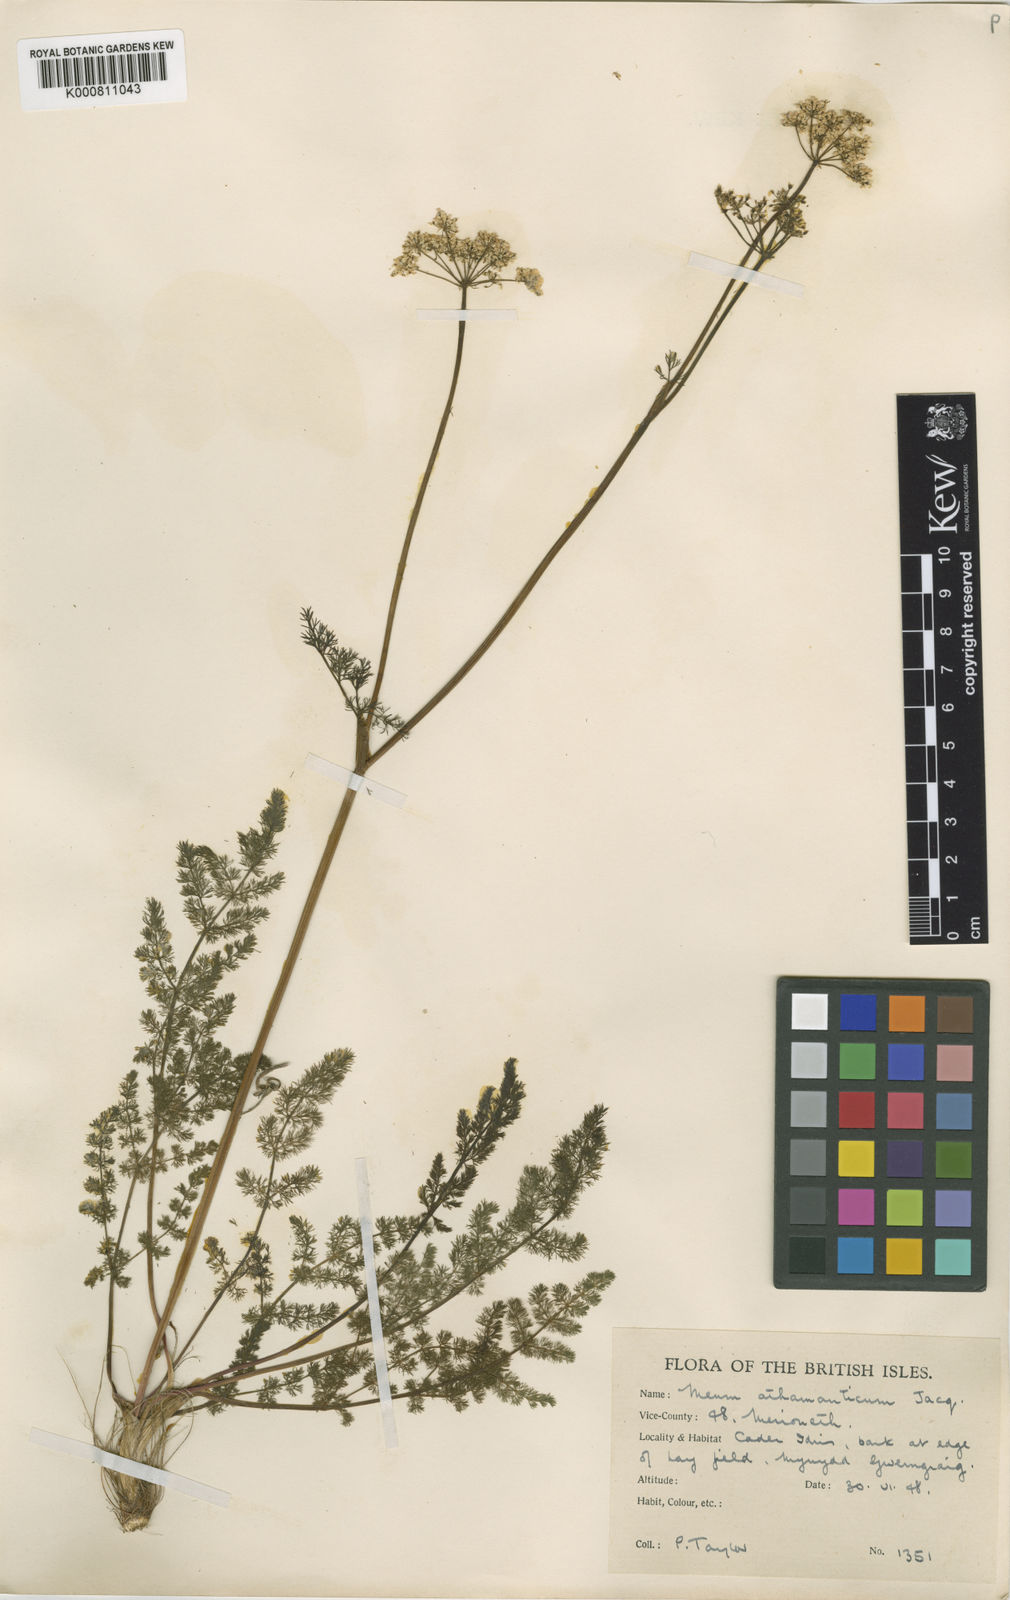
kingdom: Plantae
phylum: Tracheophyta
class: Magnoliopsida
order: Apiales
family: Apiaceae
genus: Meum
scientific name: Meum athamanticum
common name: Spignel
